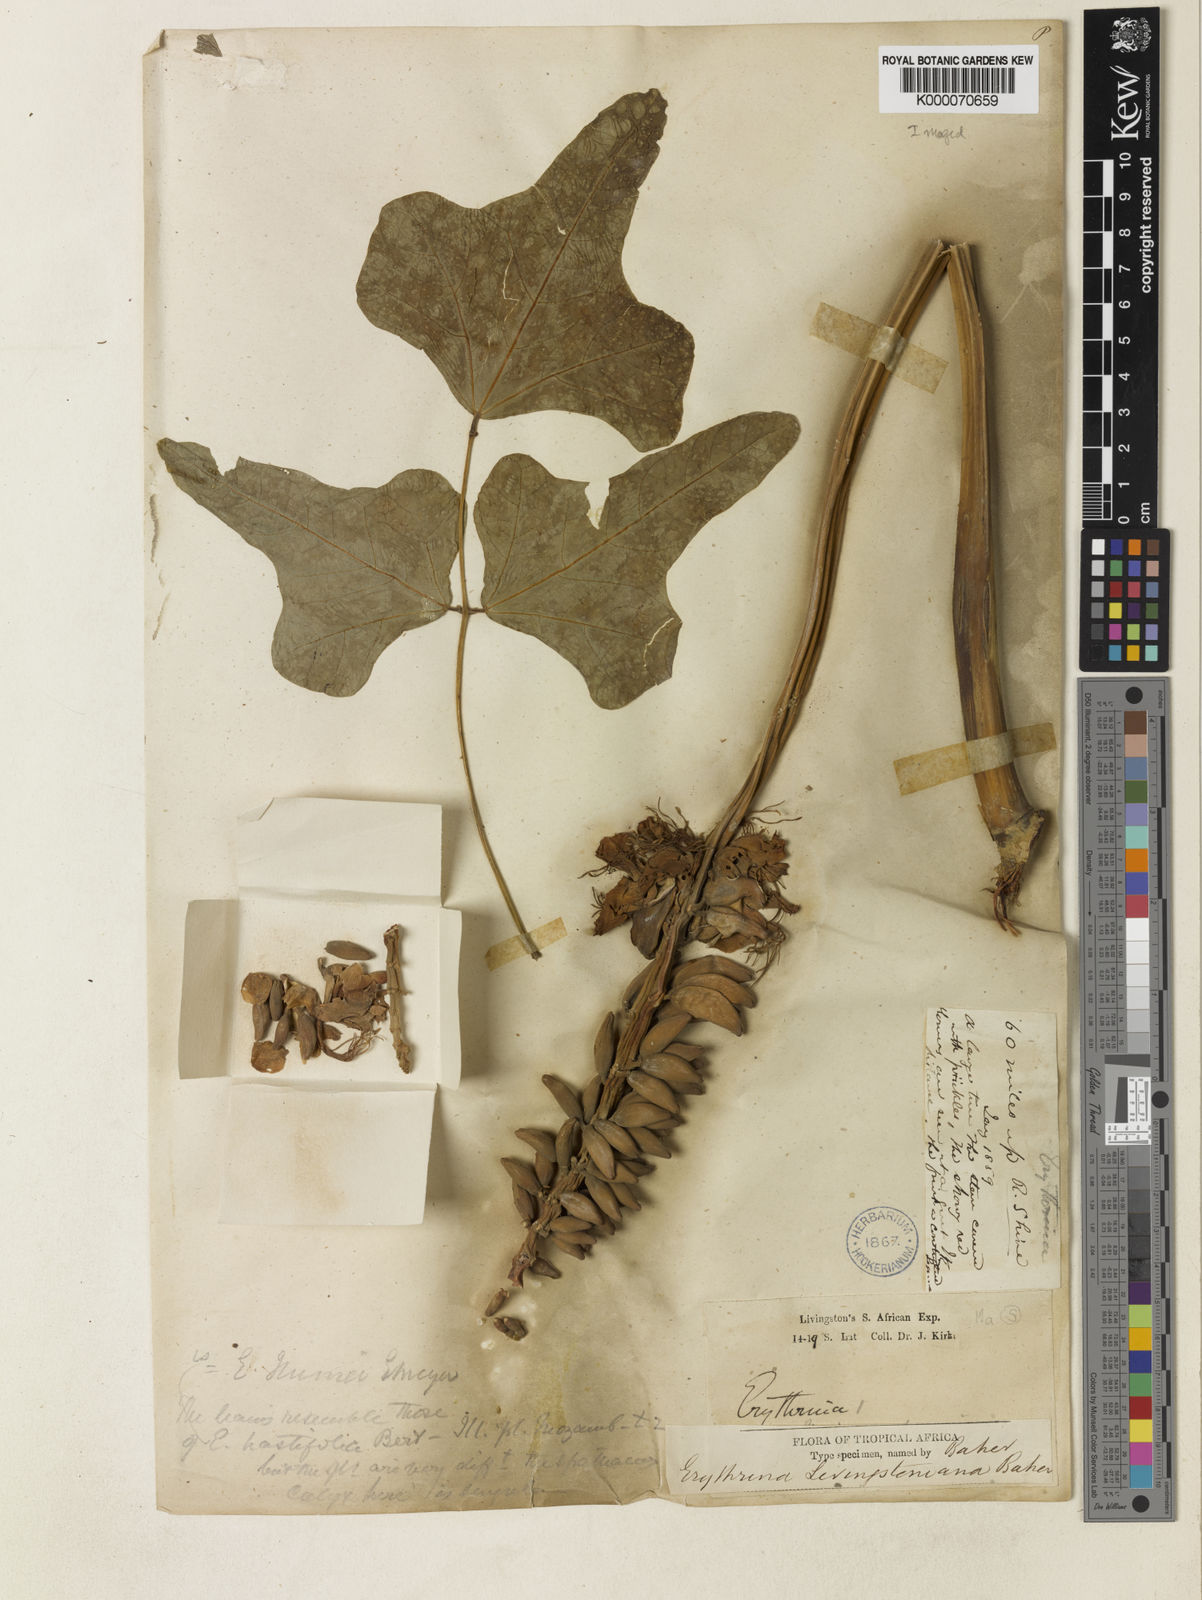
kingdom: Plantae
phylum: Tracheophyta
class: Magnoliopsida
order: Fabales
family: Fabaceae
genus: Erythrina
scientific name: Erythrina
